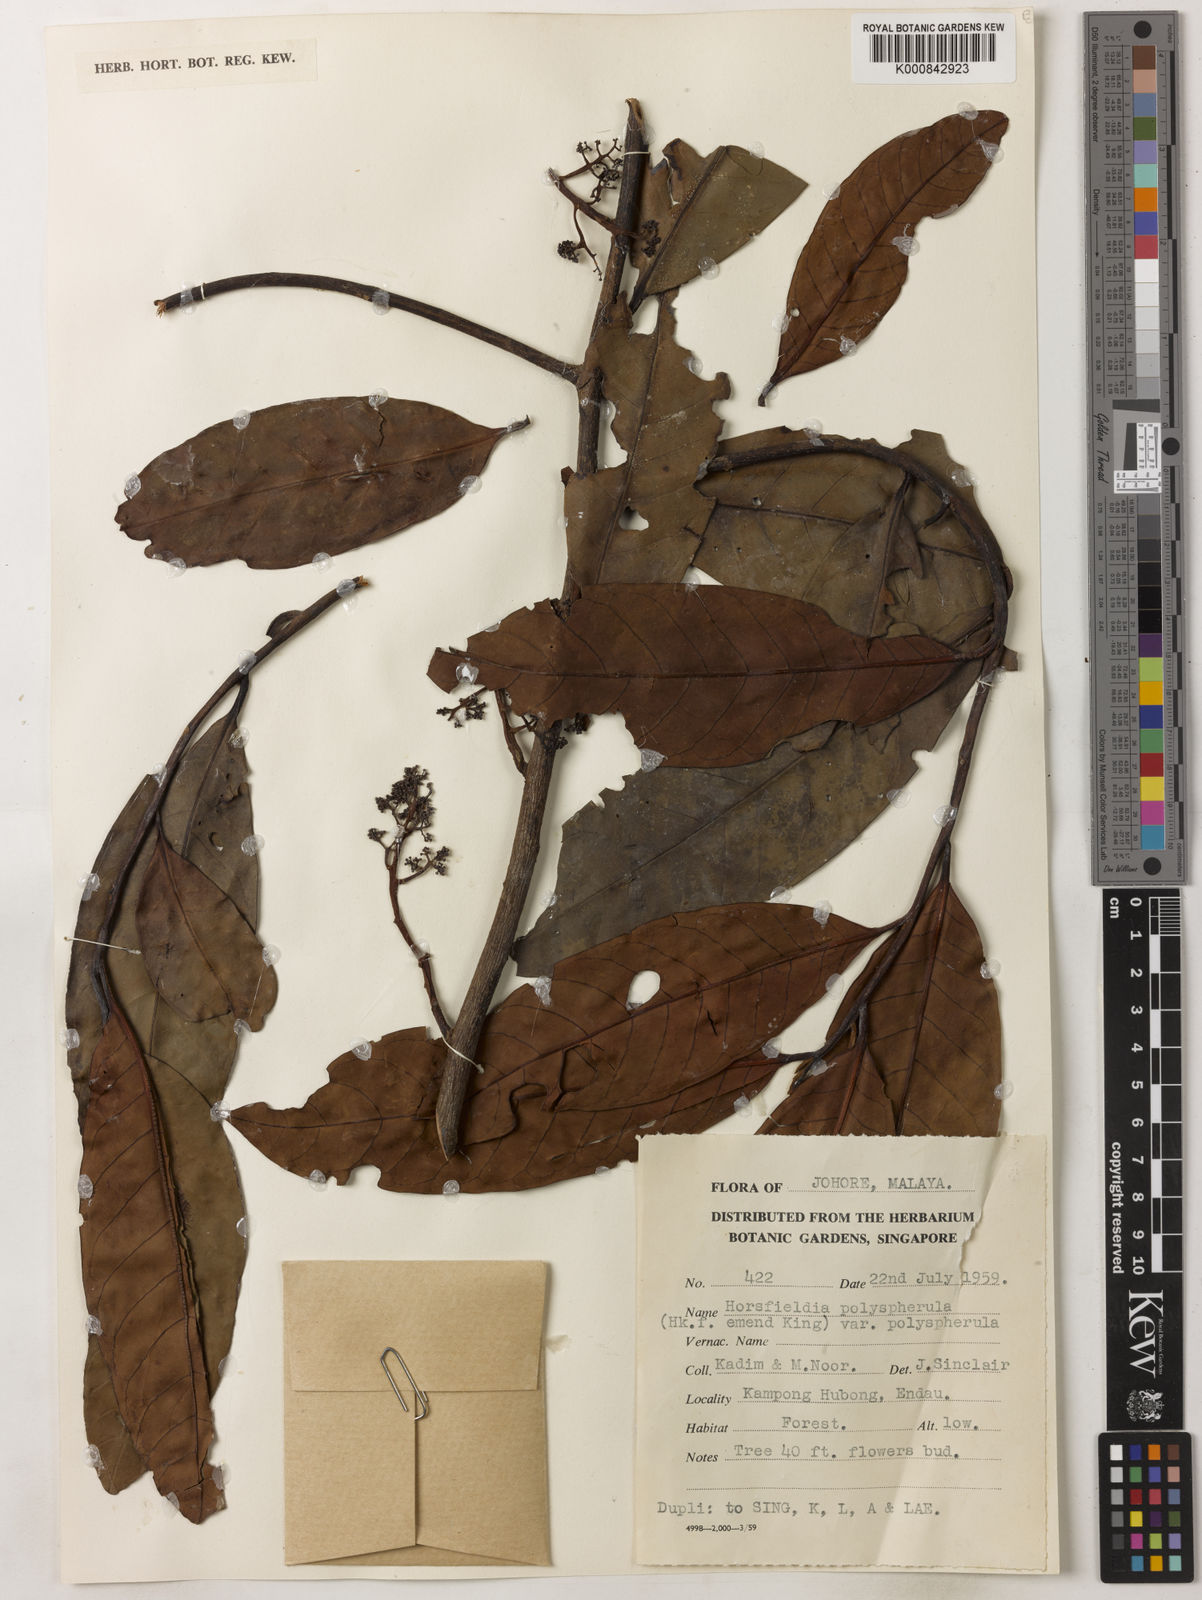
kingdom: Plantae
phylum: Tracheophyta
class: Magnoliopsida
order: Magnoliales
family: Myristicaceae
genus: Horsfieldia
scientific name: Horsfieldia
